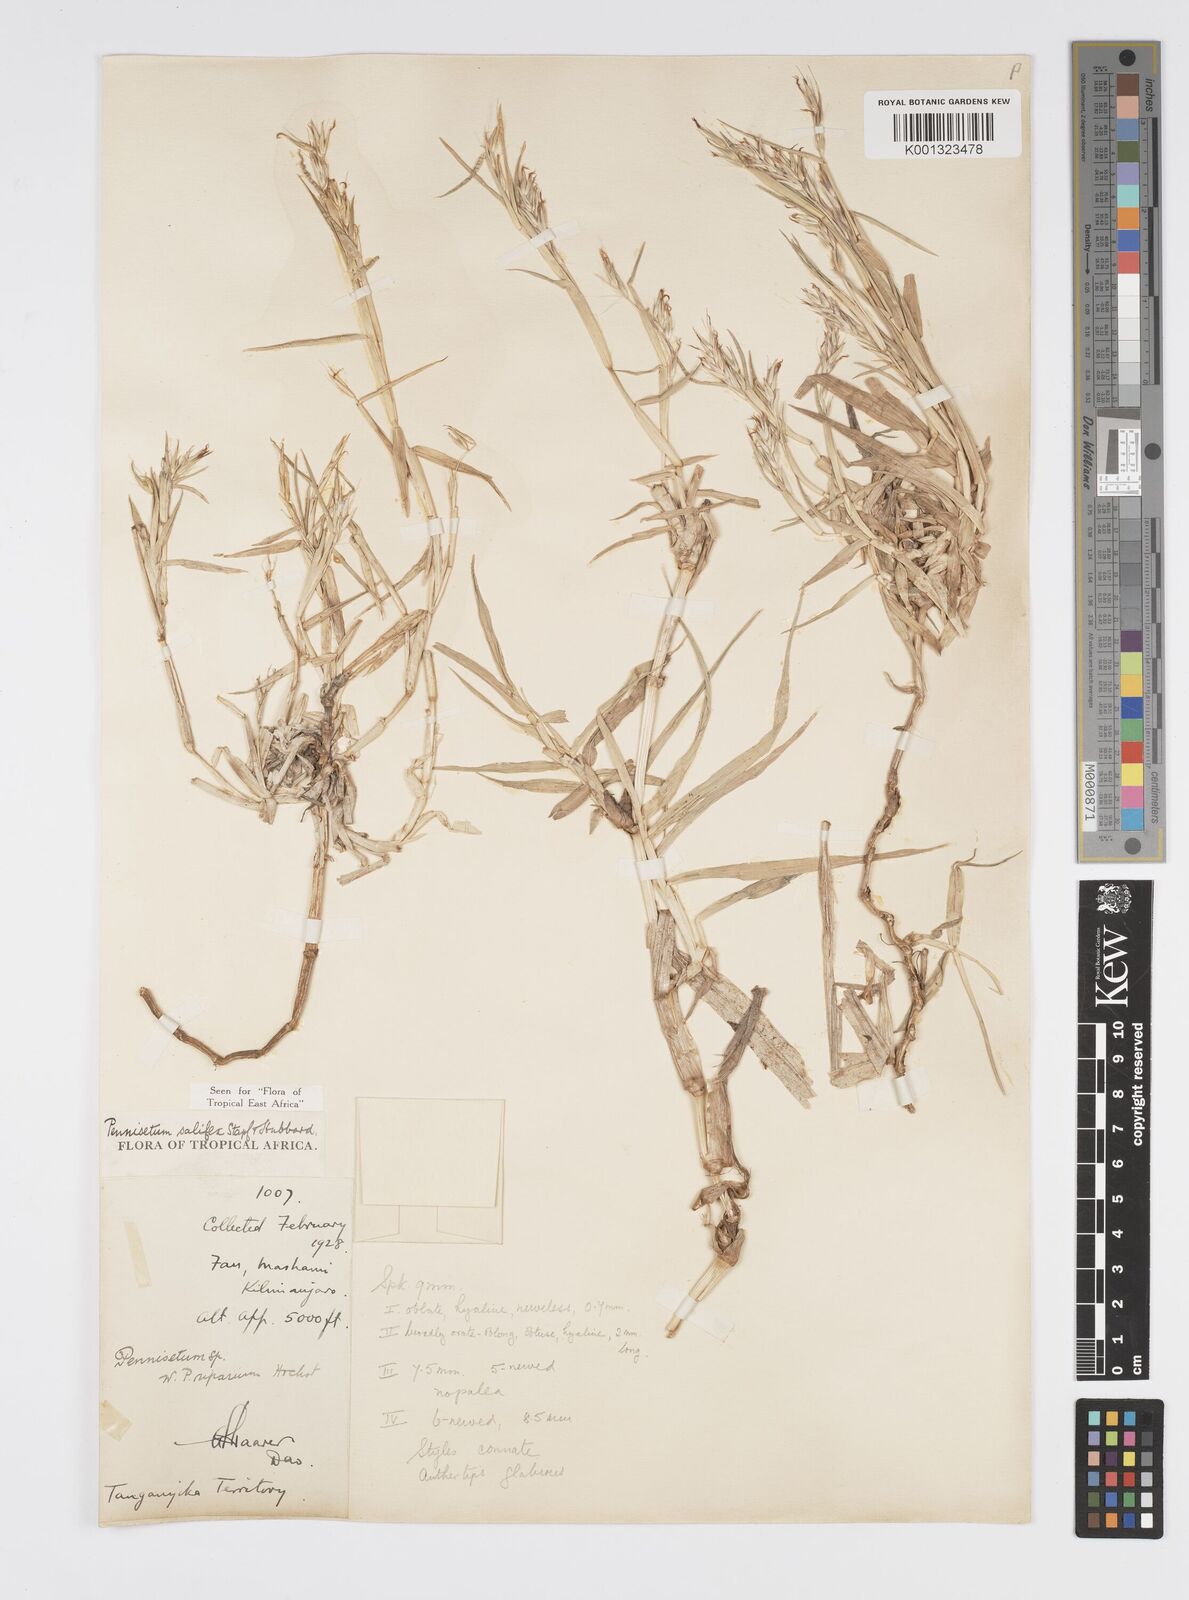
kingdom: Plantae
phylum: Tracheophyta
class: Liliopsida
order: Poales
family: Poaceae
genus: Cenchrus
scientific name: Cenchrus riparius
